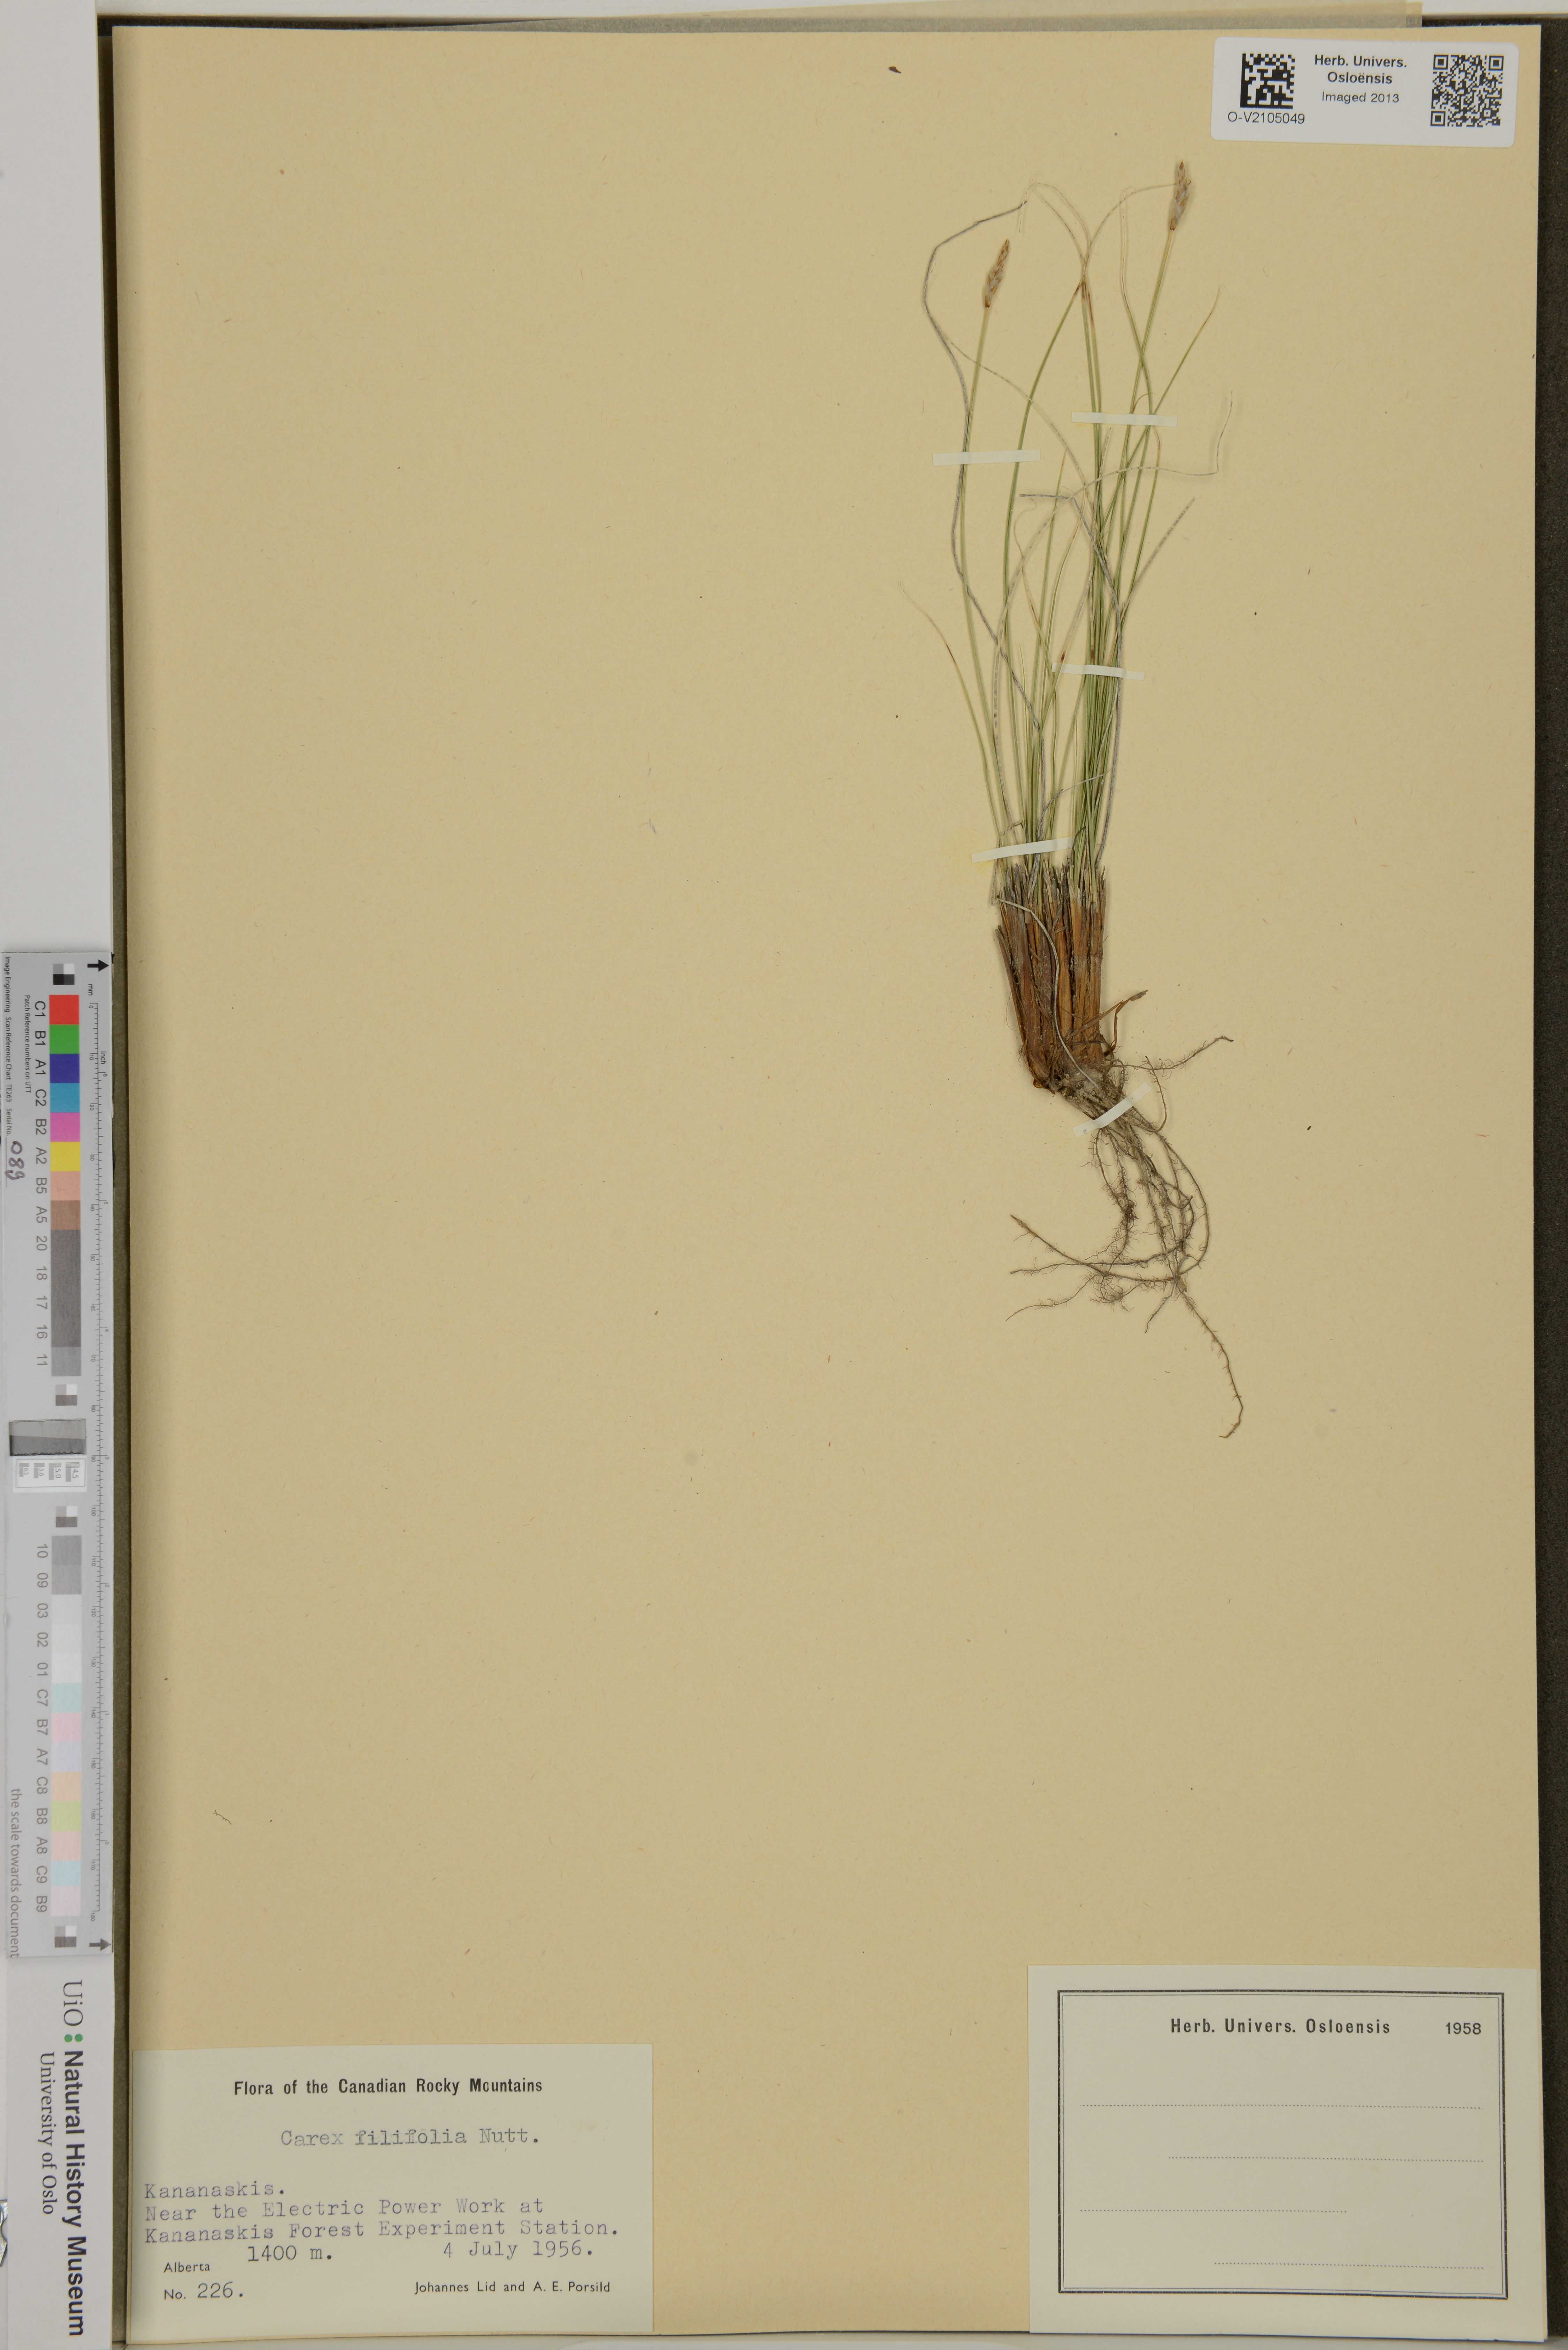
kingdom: Plantae
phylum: Tracheophyta
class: Liliopsida
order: Poales
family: Cyperaceae
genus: Carex
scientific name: Carex filifolia
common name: Threadleaf sedge
